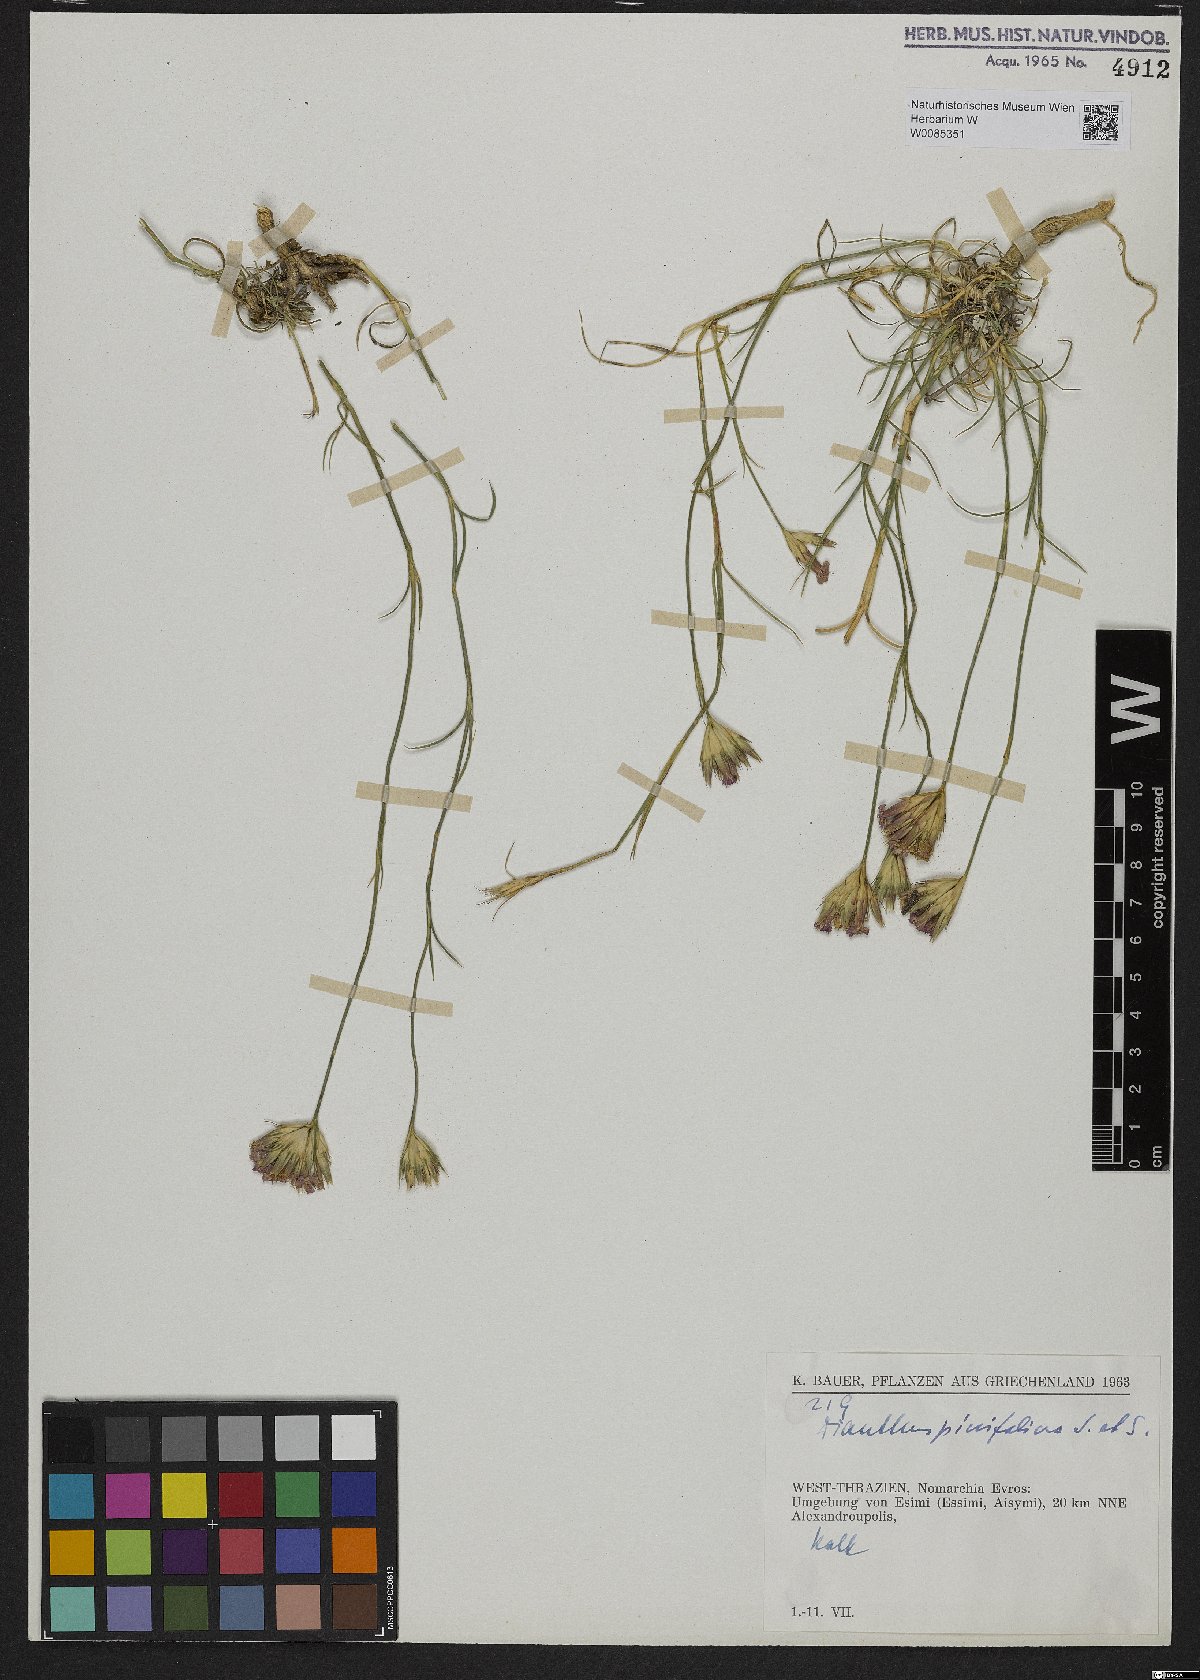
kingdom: Plantae
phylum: Tracheophyta
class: Magnoliopsida
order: Caryophyllales
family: Caryophyllaceae
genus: Dianthus
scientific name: Dianthus pinifolius
